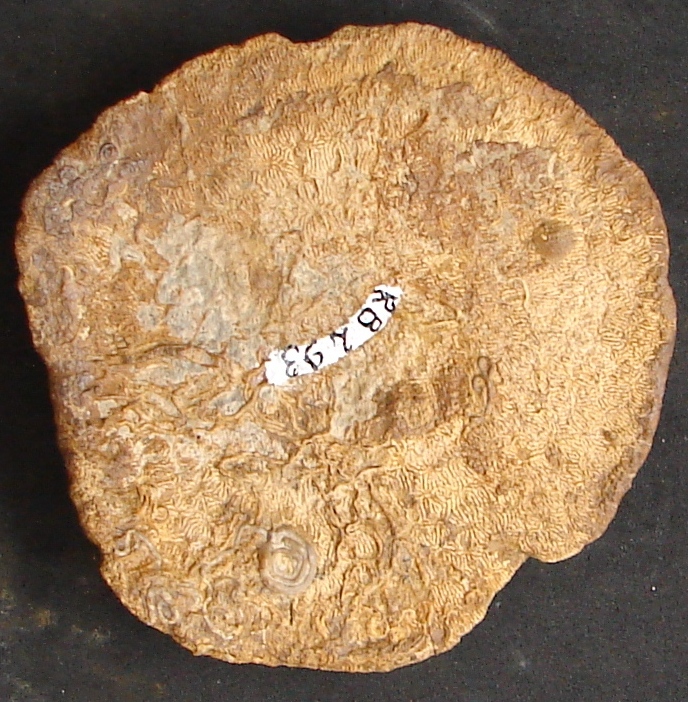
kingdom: Animalia
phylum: Cnidaria
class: Anthozoa
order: Scleractinia
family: Latomeandridae
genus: Periseris
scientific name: Periseris
